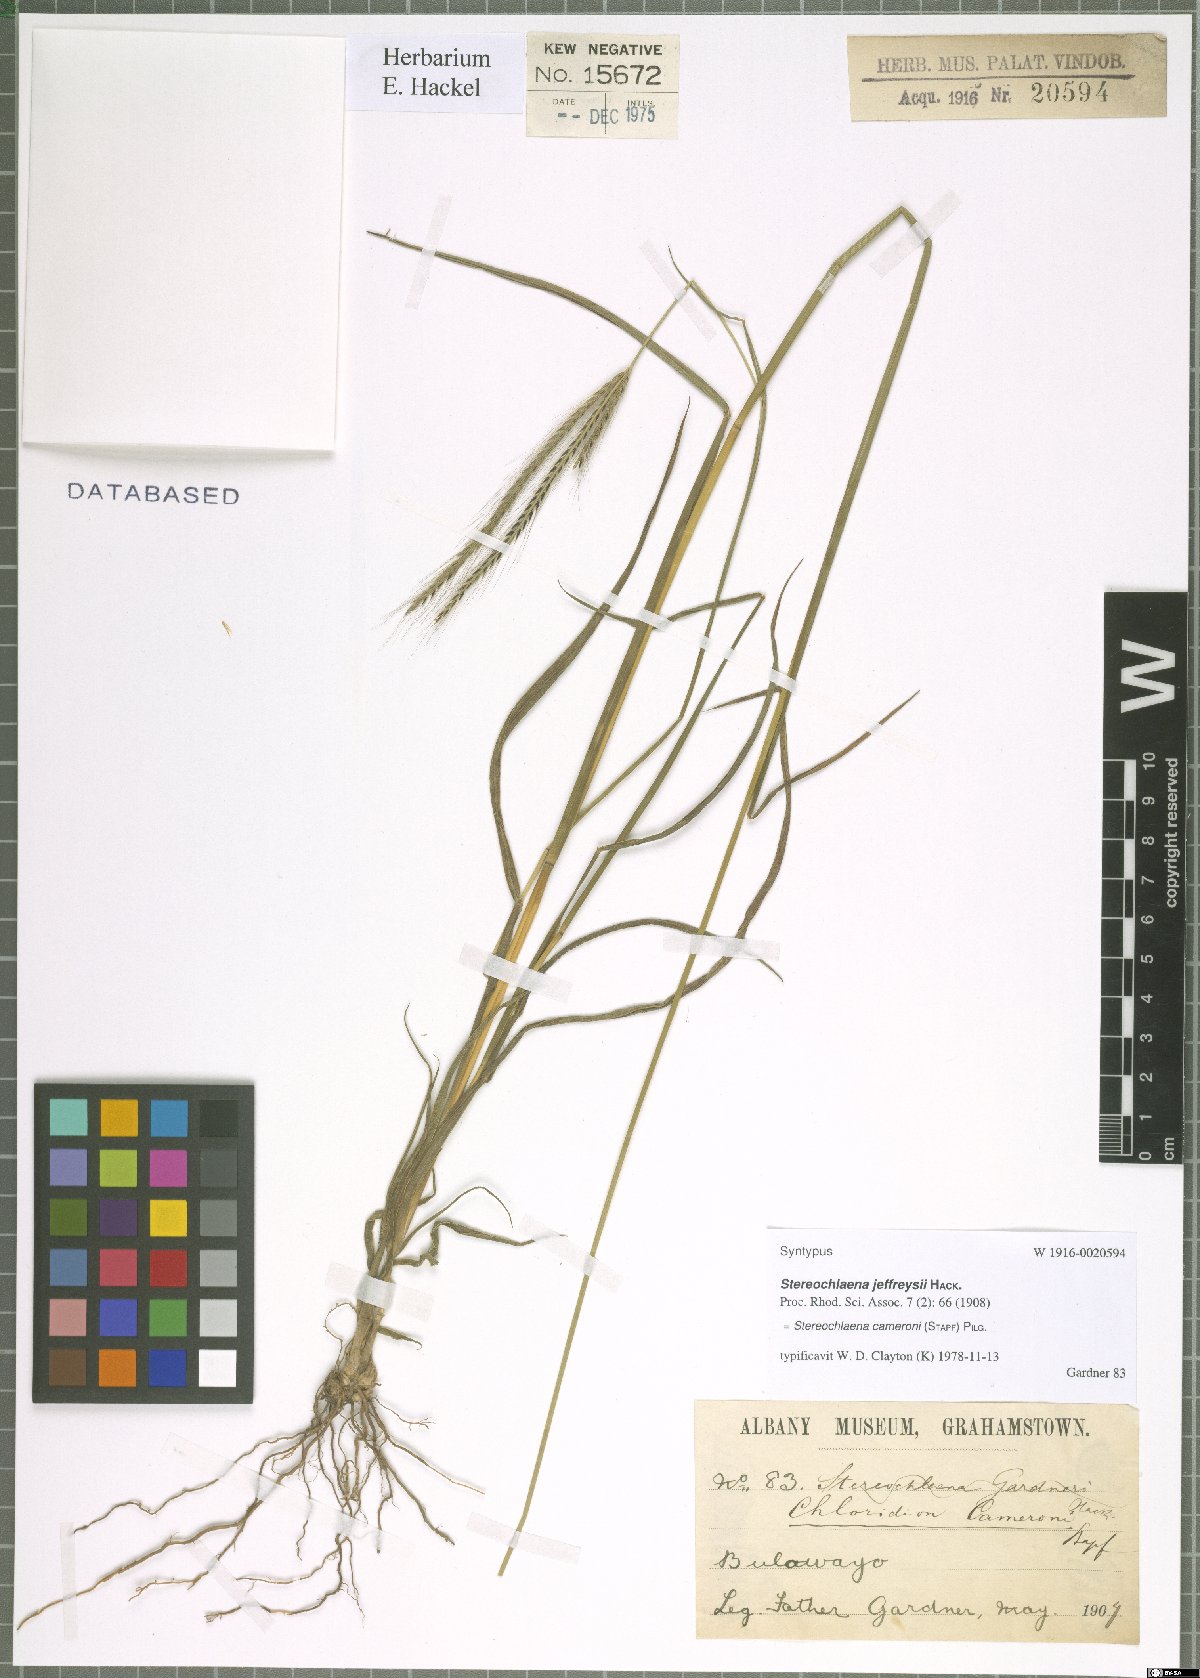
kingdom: Plantae
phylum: Tracheophyta
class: Liliopsida
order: Poales
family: Poaceae
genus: Stereochlaena
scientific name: Stereochlaena cameronii
